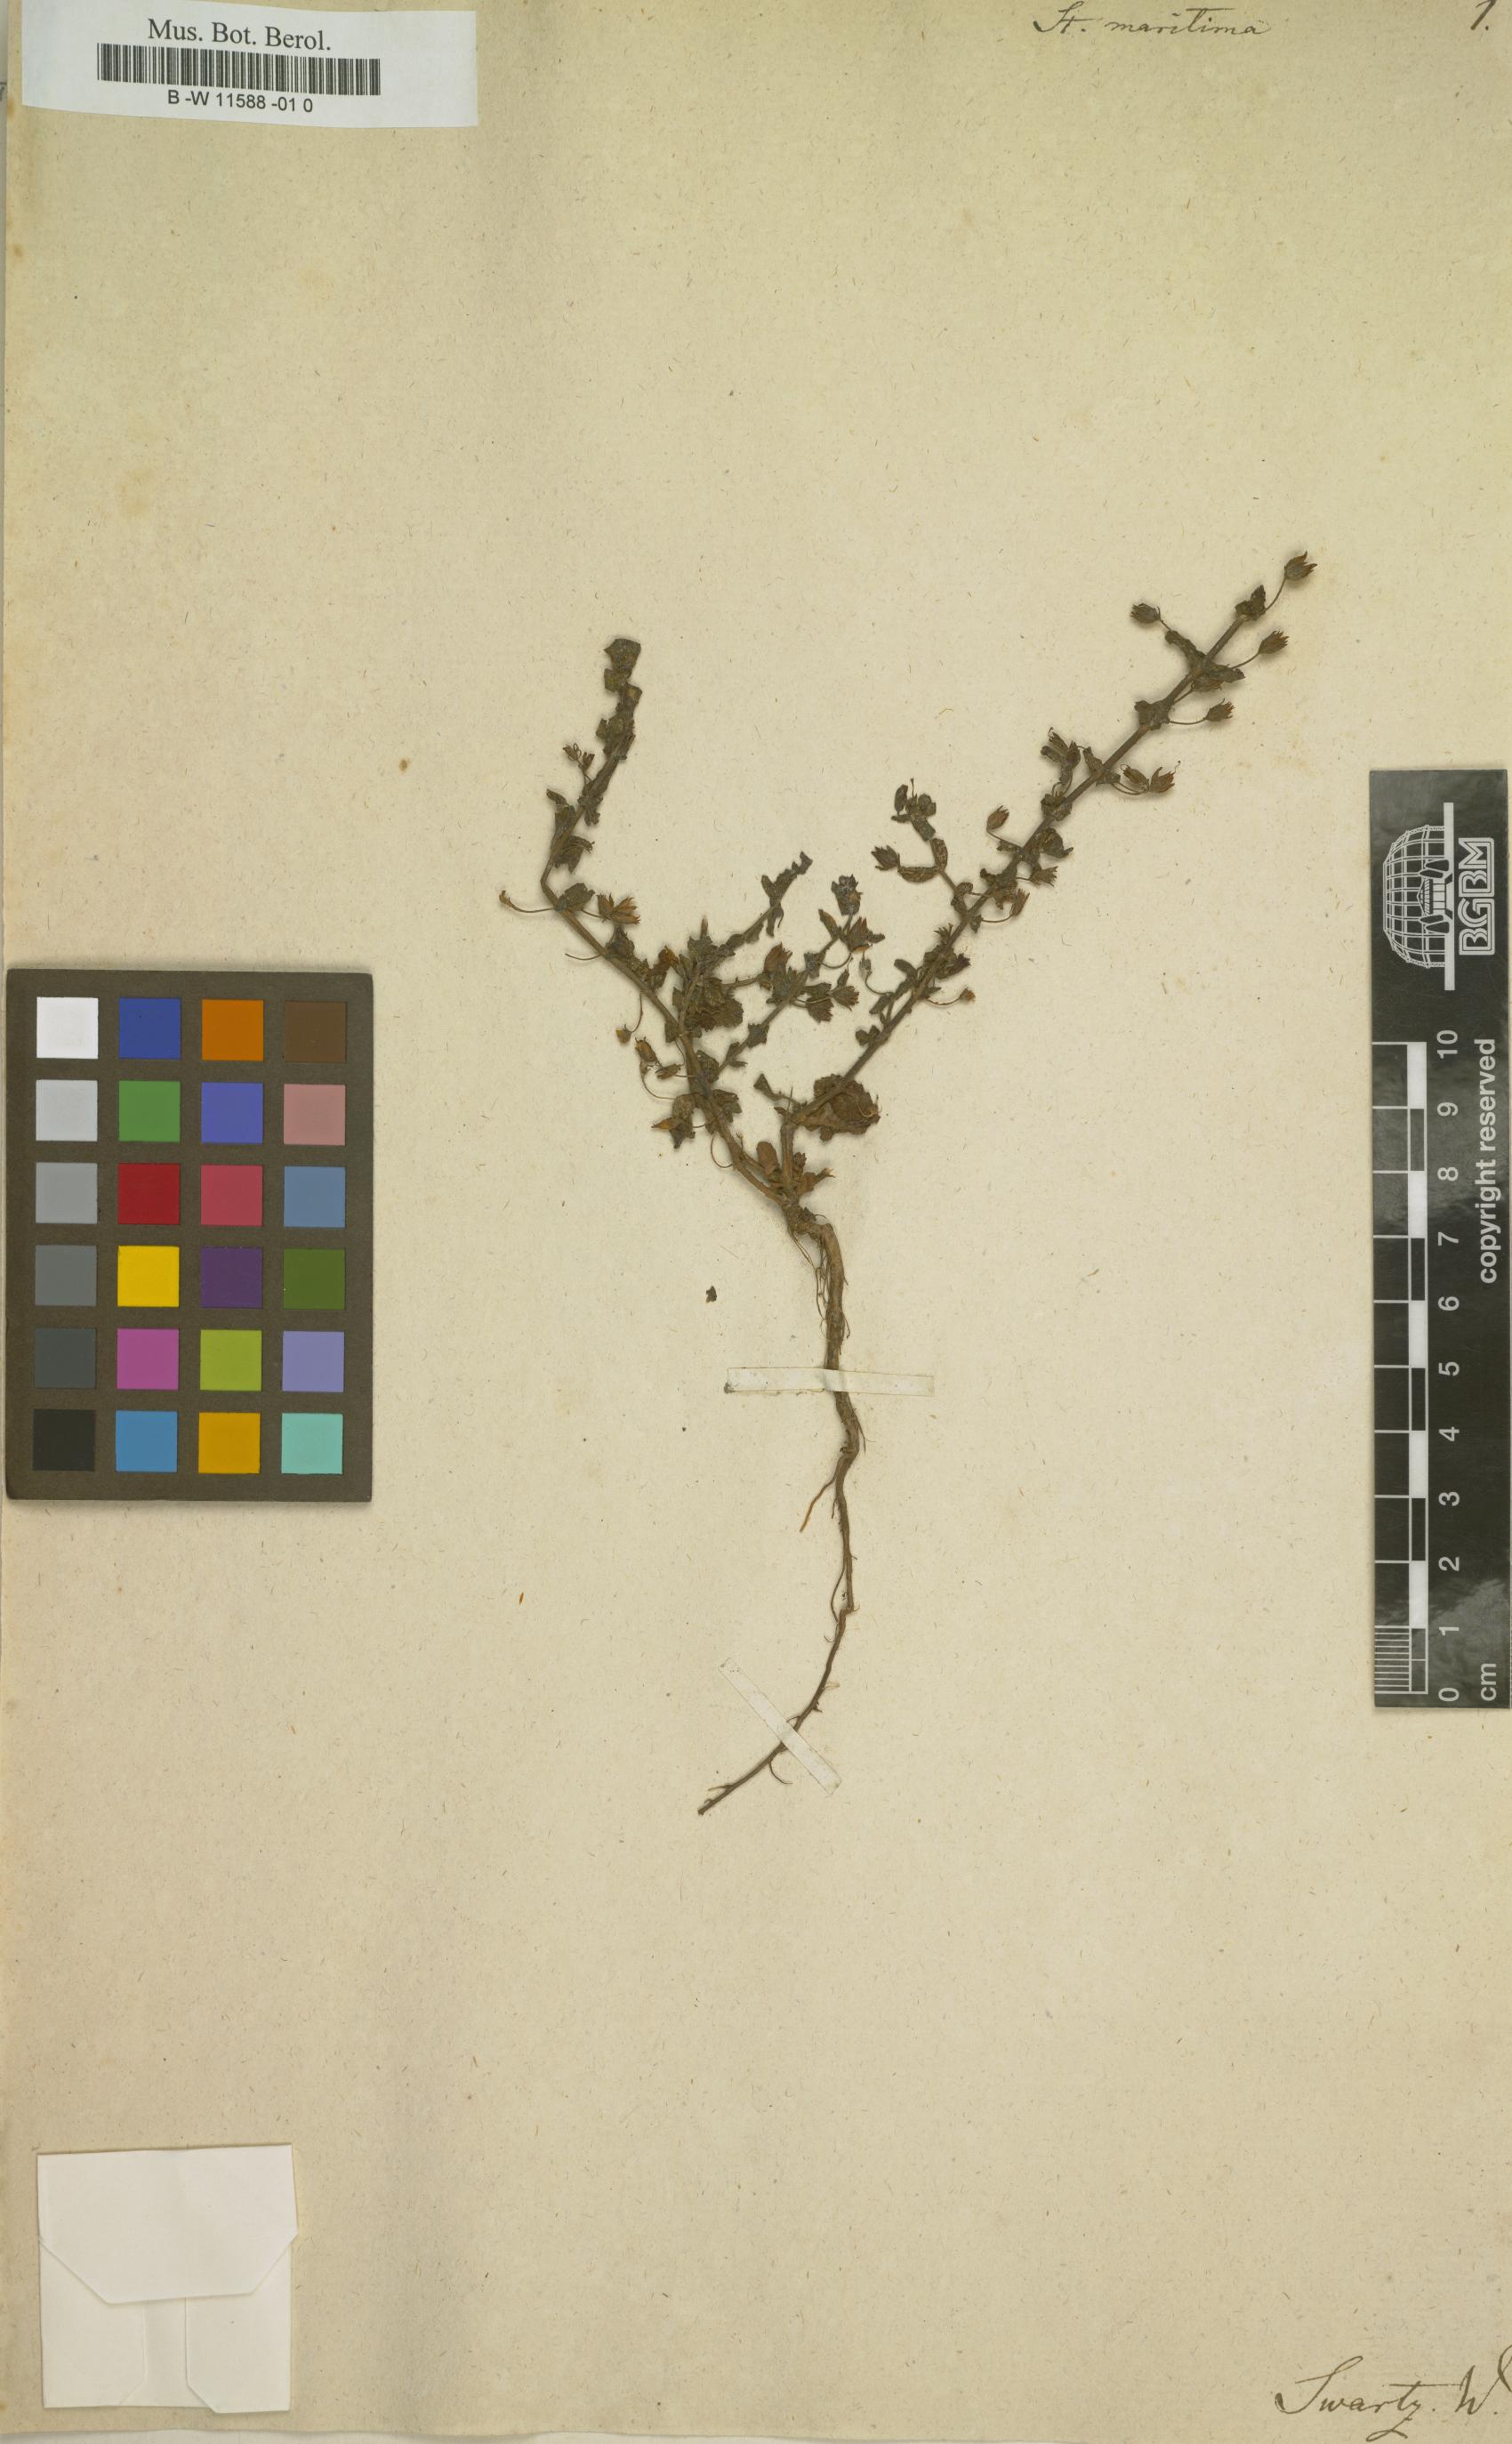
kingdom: Plantae
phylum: Tracheophyta
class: Magnoliopsida
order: Lamiales
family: Plantaginaceae
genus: Stemodia
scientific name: Stemodia maritima
